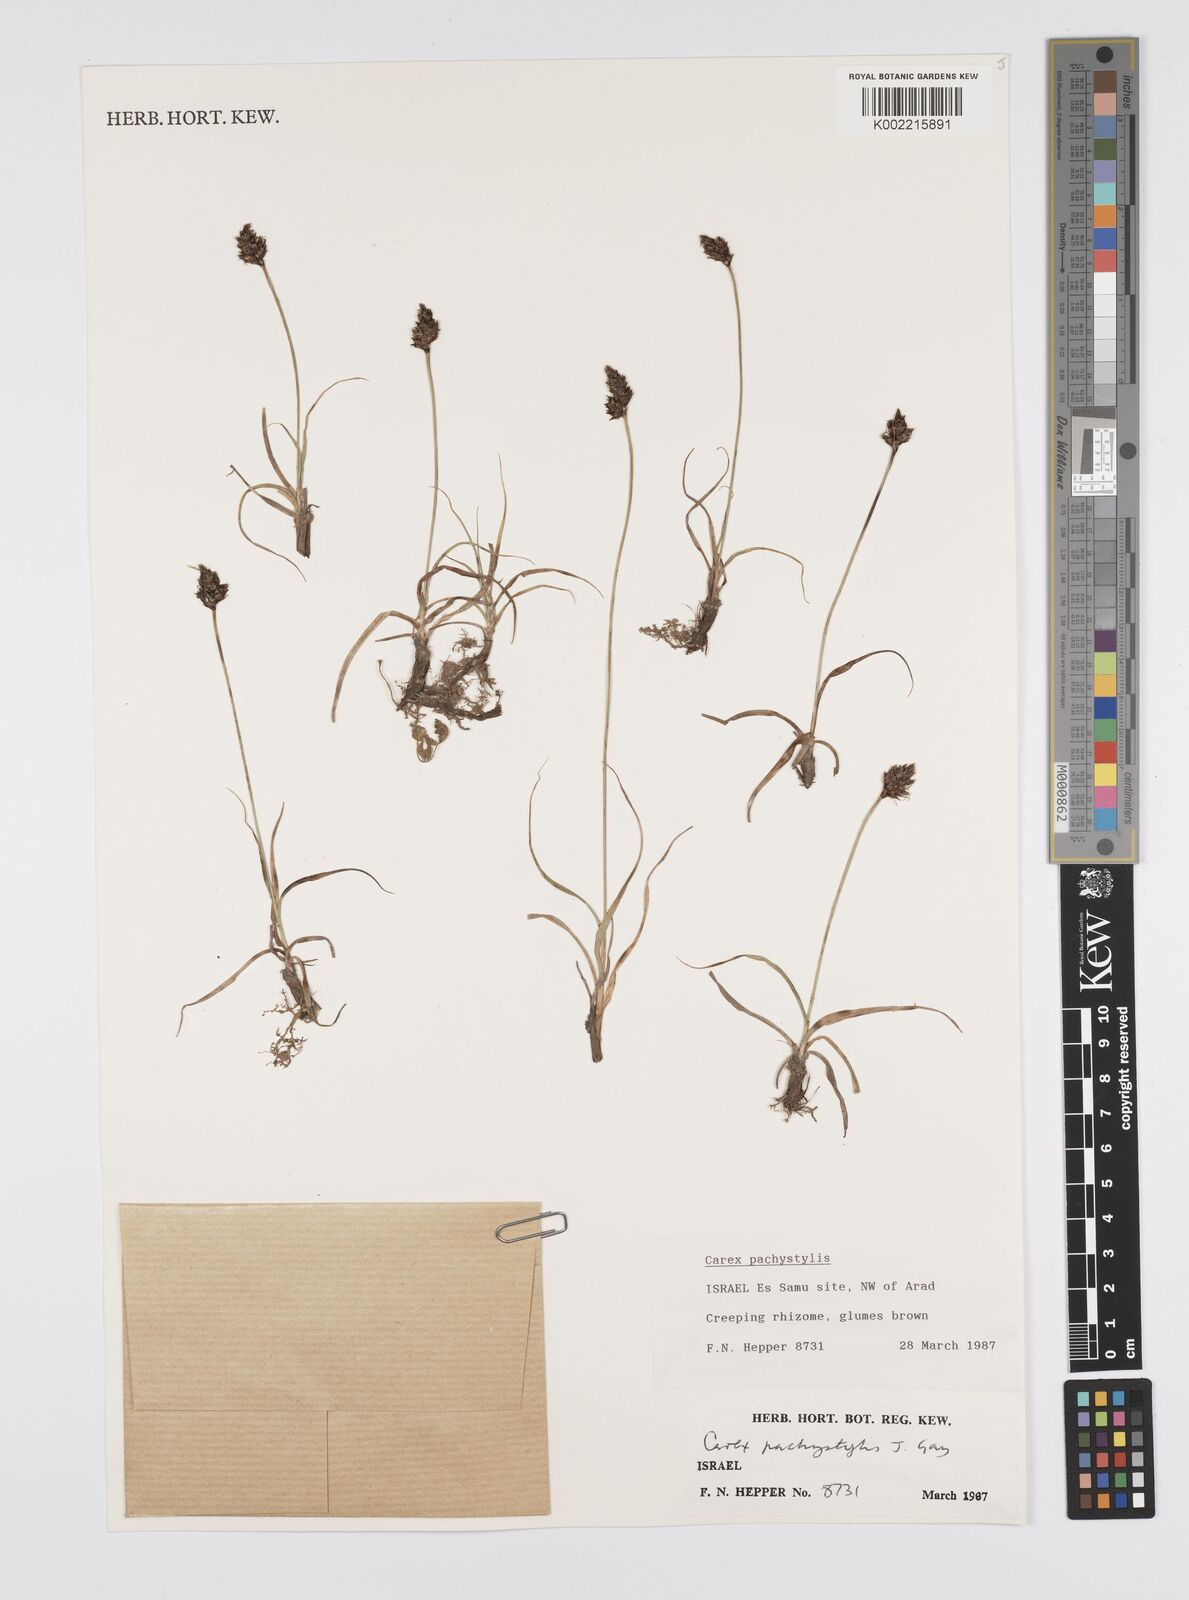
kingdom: Plantae
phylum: Tracheophyta
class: Liliopsida
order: Poales
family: Cyperaceae
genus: Carex
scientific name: Carex stenophylla
